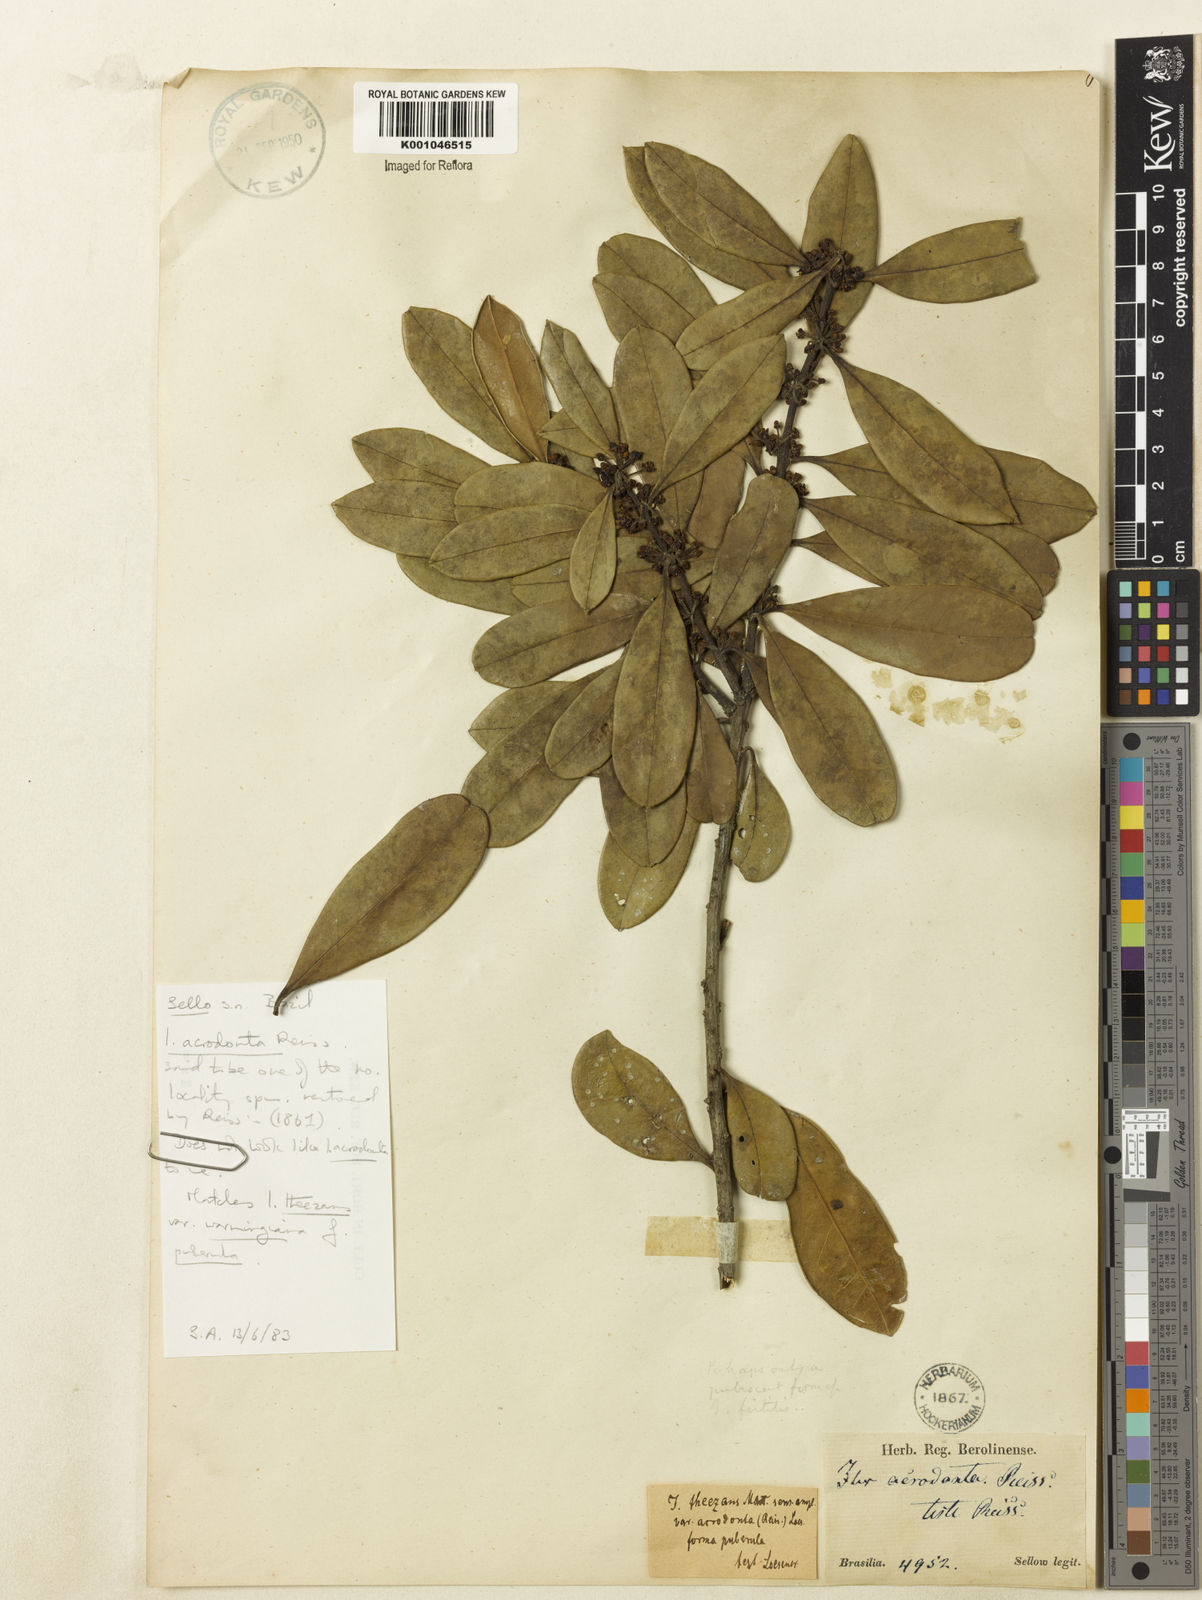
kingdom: Plantae
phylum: Tracheophyta
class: Magnoliopsida
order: Aquifoliales
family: Aquifoliaceae
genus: Ilex
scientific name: Ilex theezans
